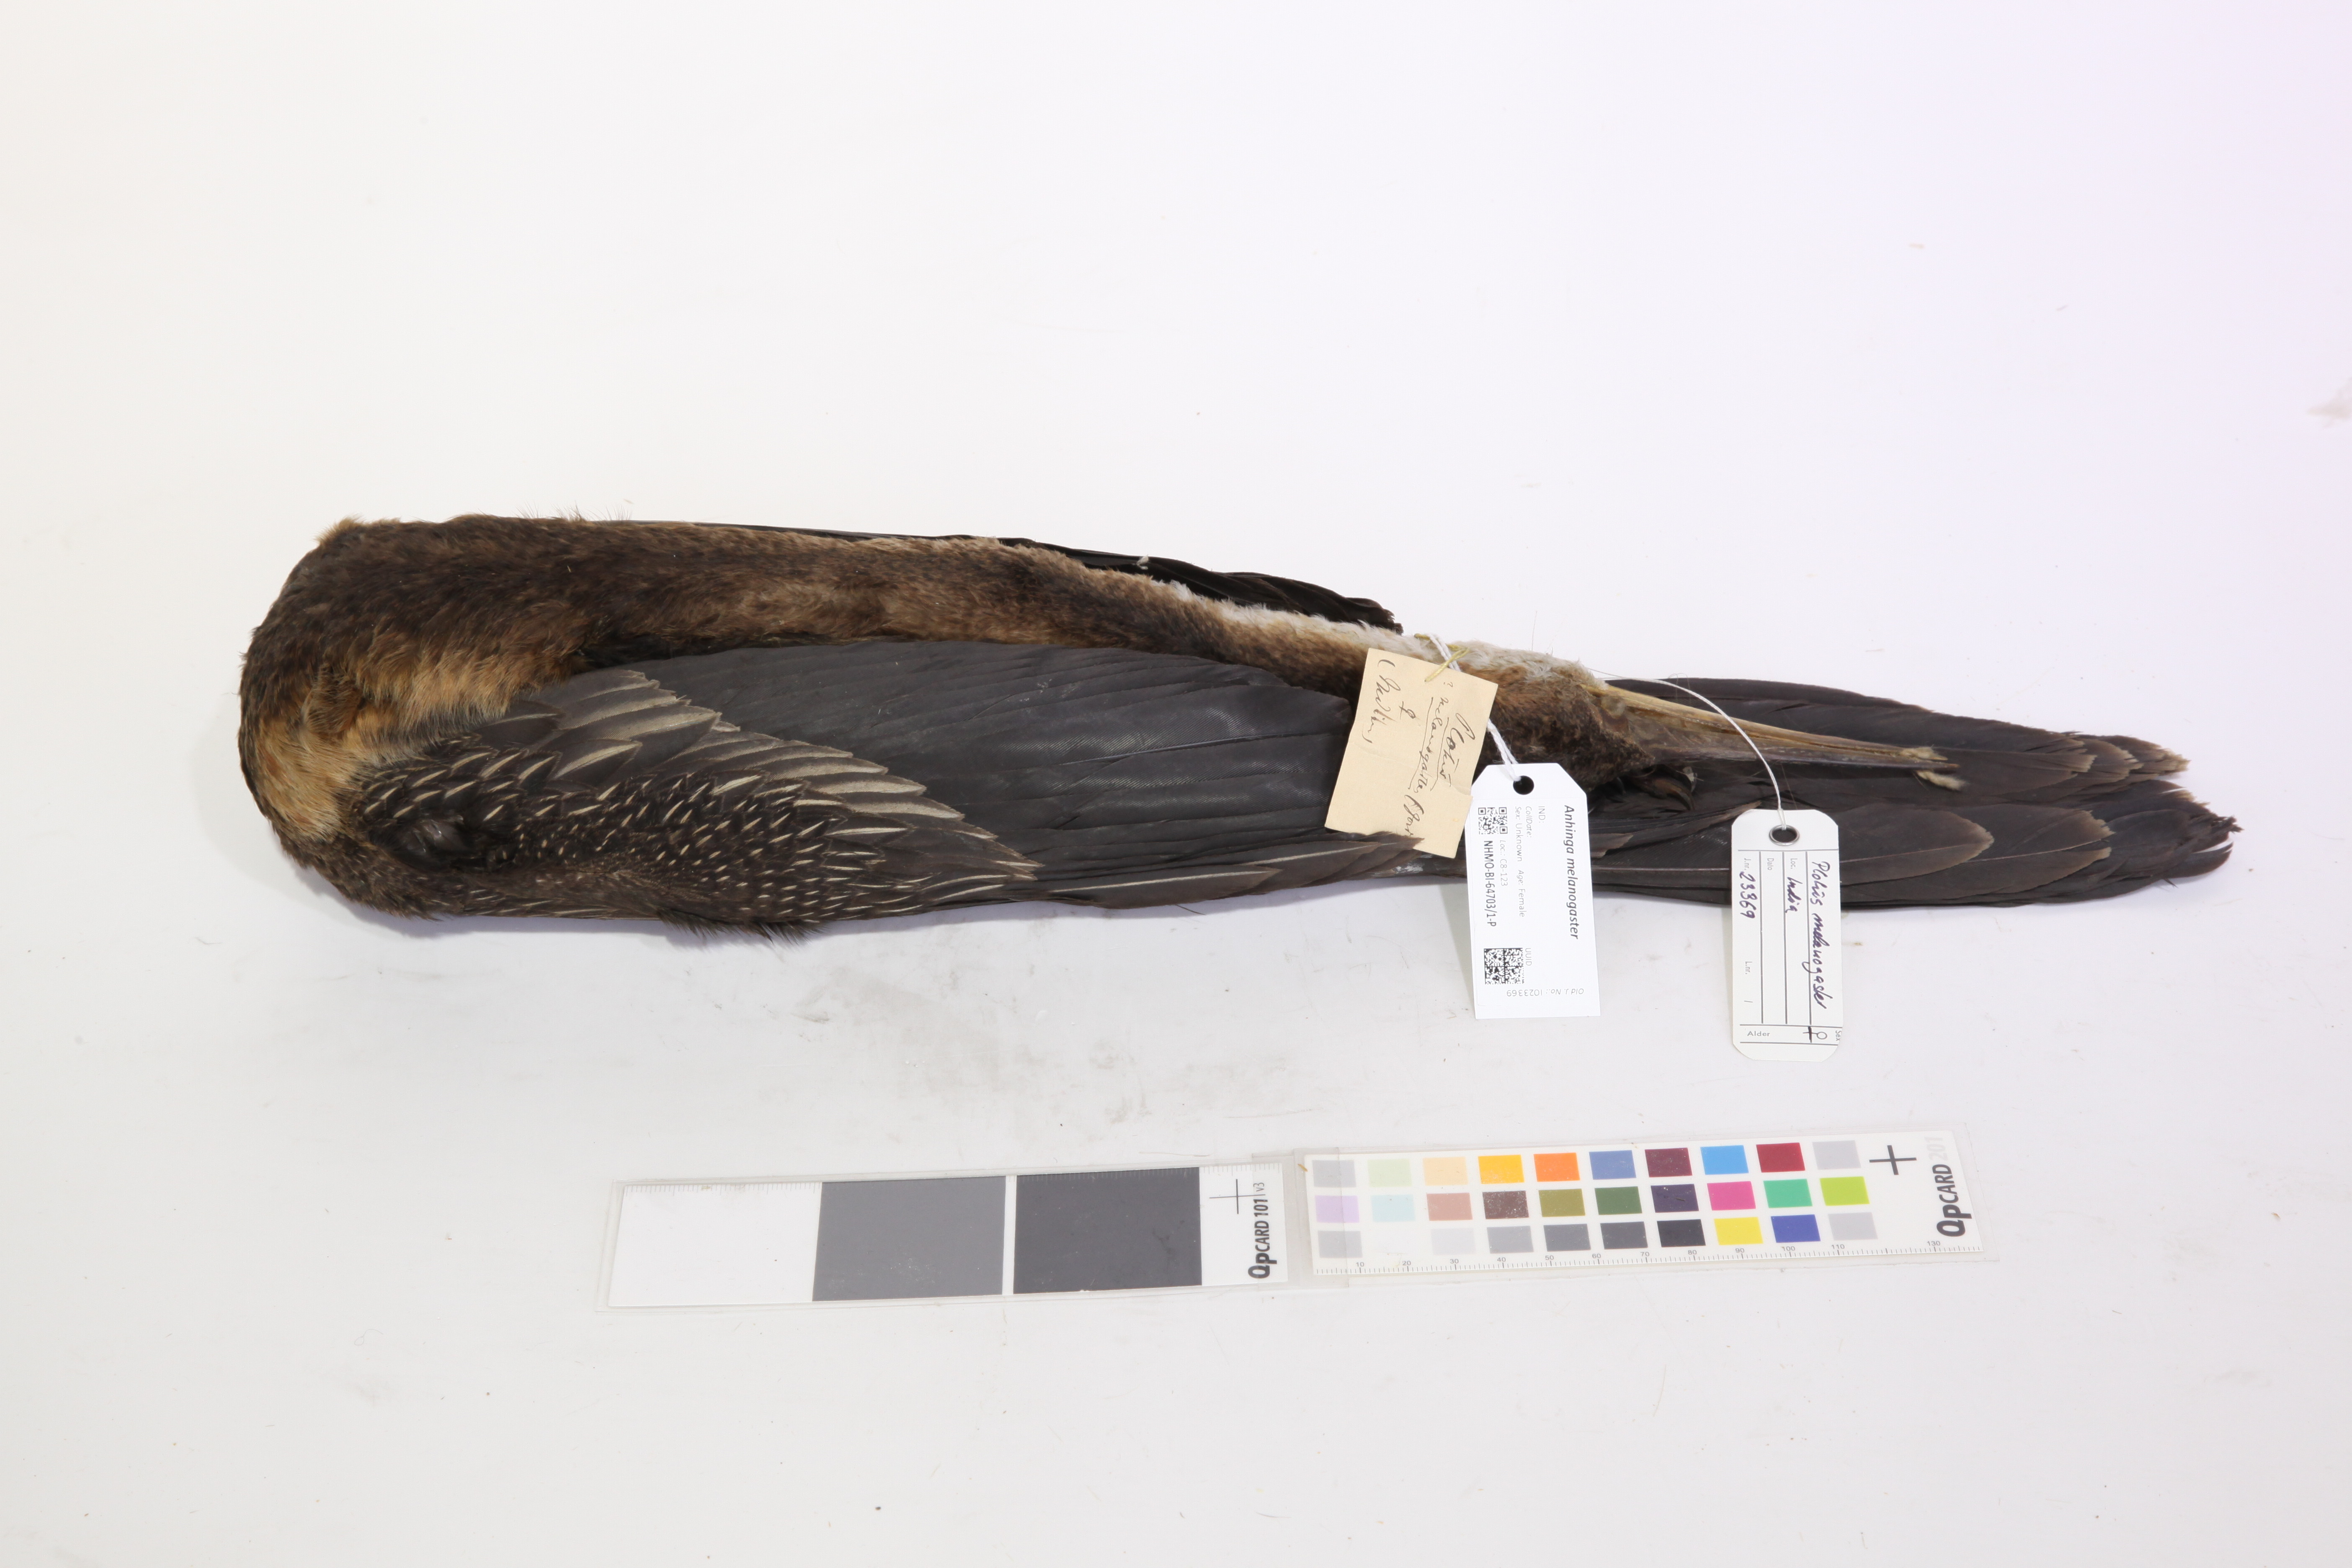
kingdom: Animalia
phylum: Chordata
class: Aves
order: Suliformes
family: Anhingidae
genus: Anhinga
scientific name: Anhinga melanogaster
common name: Oriental darter
